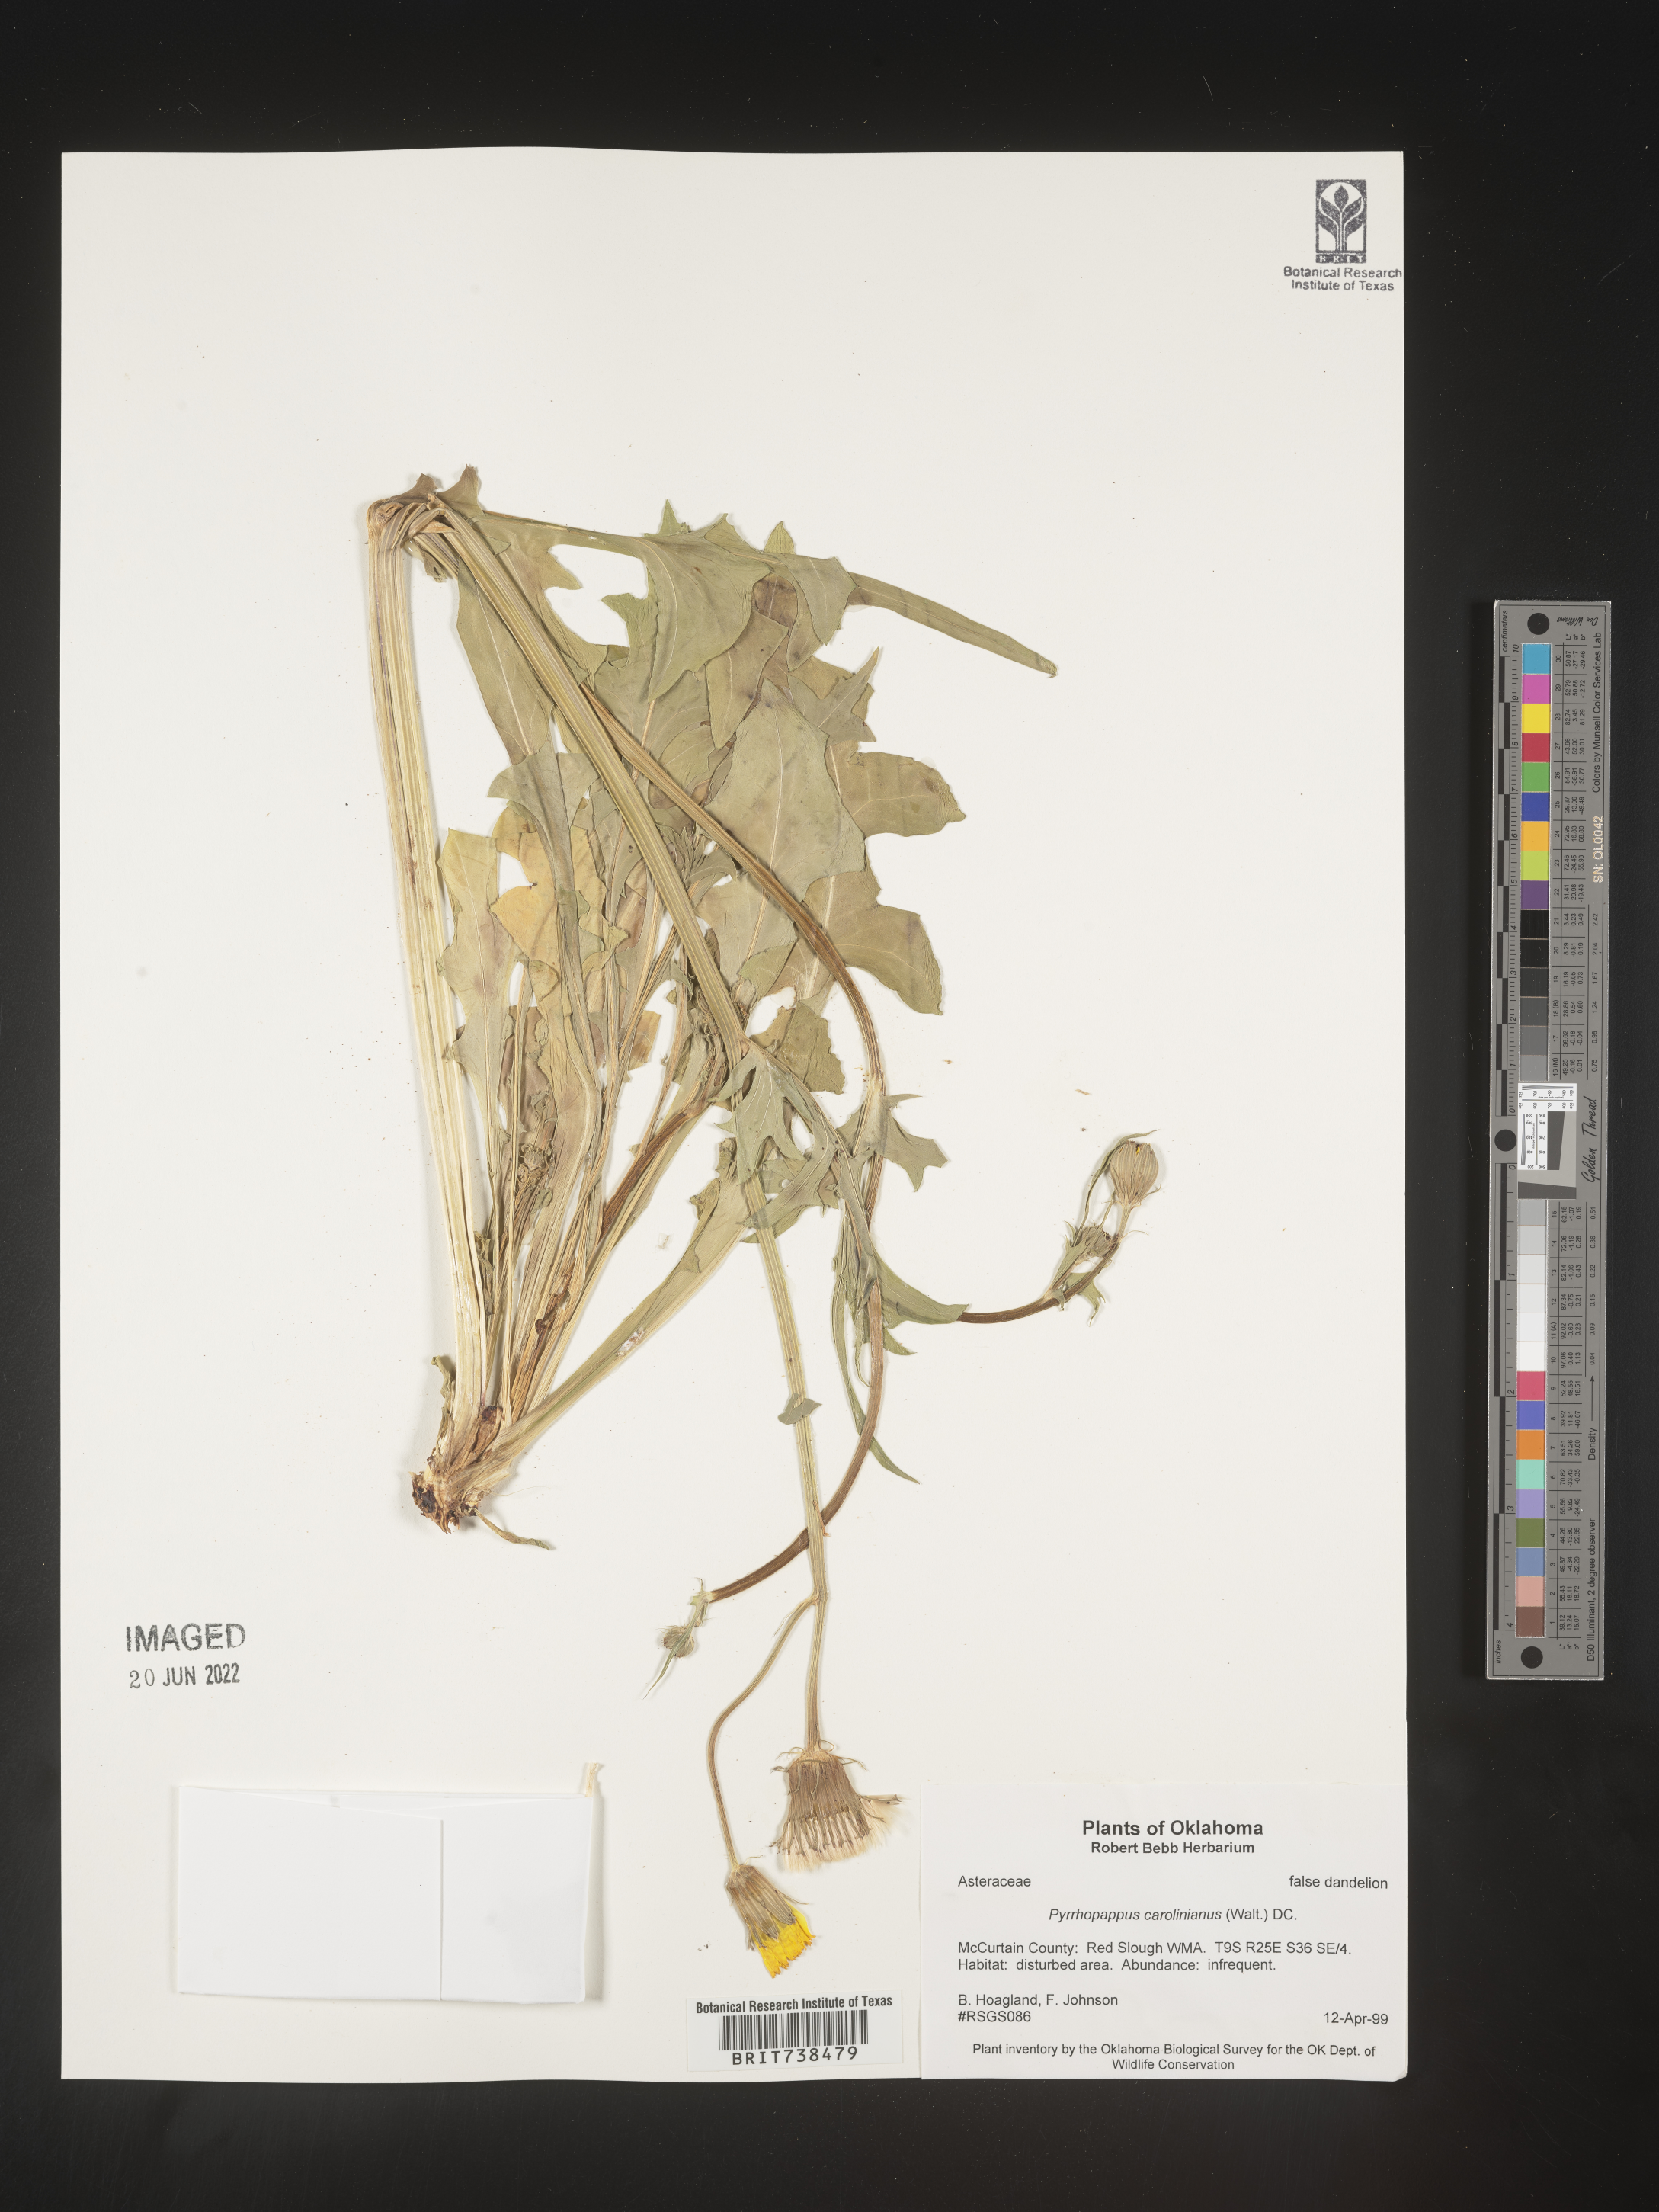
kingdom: Plantae
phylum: Tracheophyta
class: Magnoliopsida
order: Asterales
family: Asteraceae
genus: Pyrrhopappus
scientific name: Pyrrhopappus carolinianus
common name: Carolina desert-chicory
